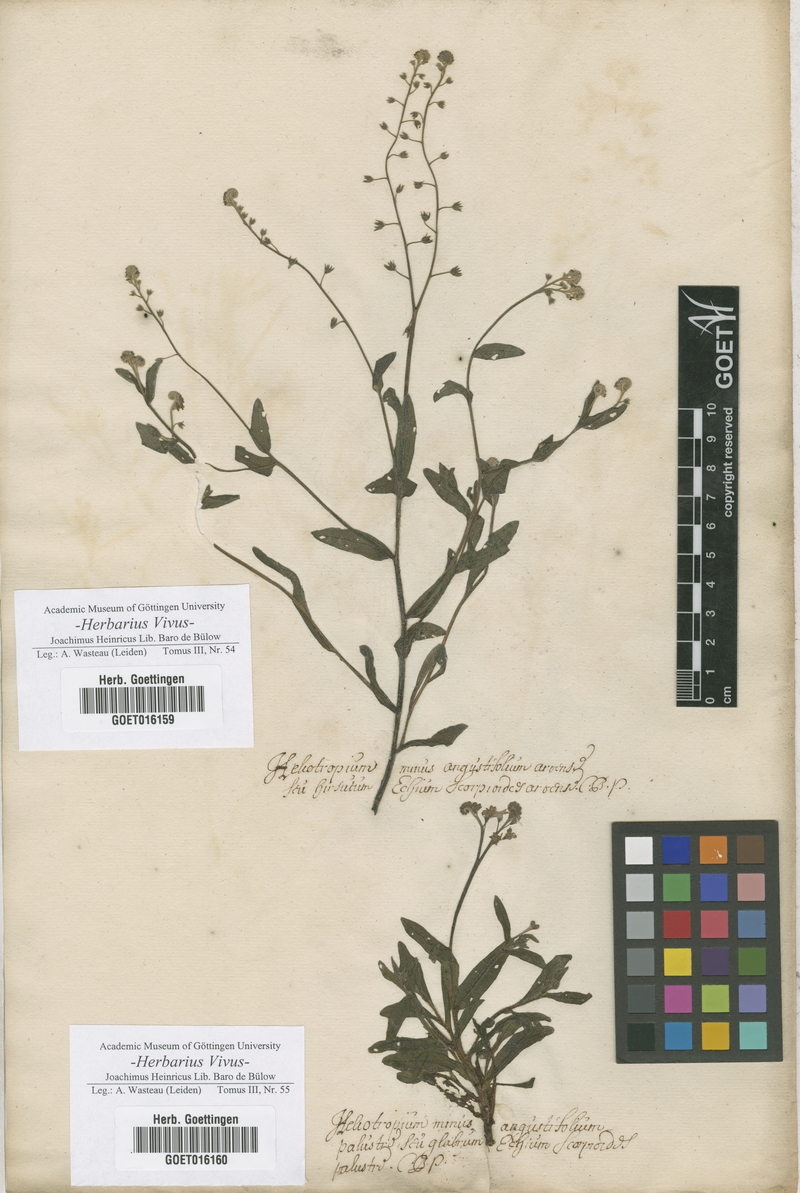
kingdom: Plantae
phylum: Tracheophyta
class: Magnoliopsida
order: Boraginales
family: Boraginaceae
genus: Myosotis
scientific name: Myosotis scorpioides
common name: Water forget-me-not
